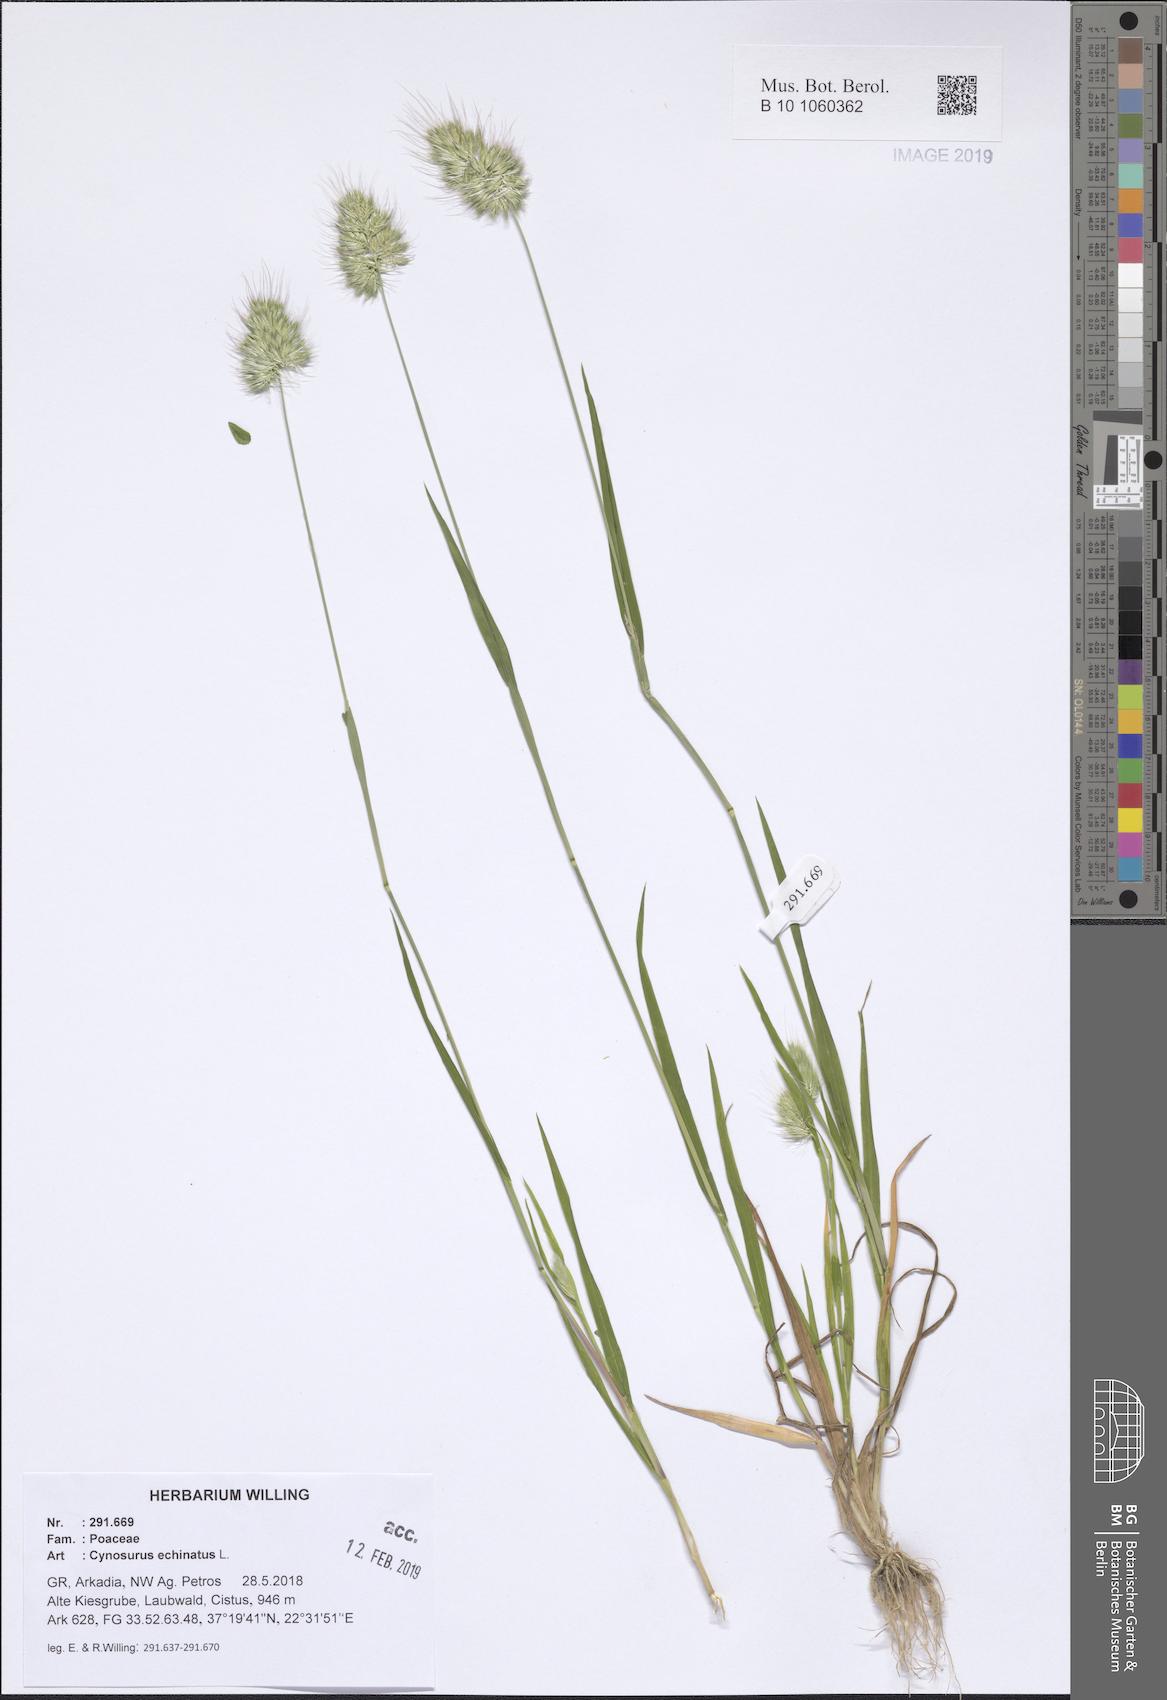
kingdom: Plantae
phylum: Tracheophyta
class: Liliopsida
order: Poales
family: Poaceae
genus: Cynosurus
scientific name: Cynosurus echinatus
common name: Rough dog's-tail
